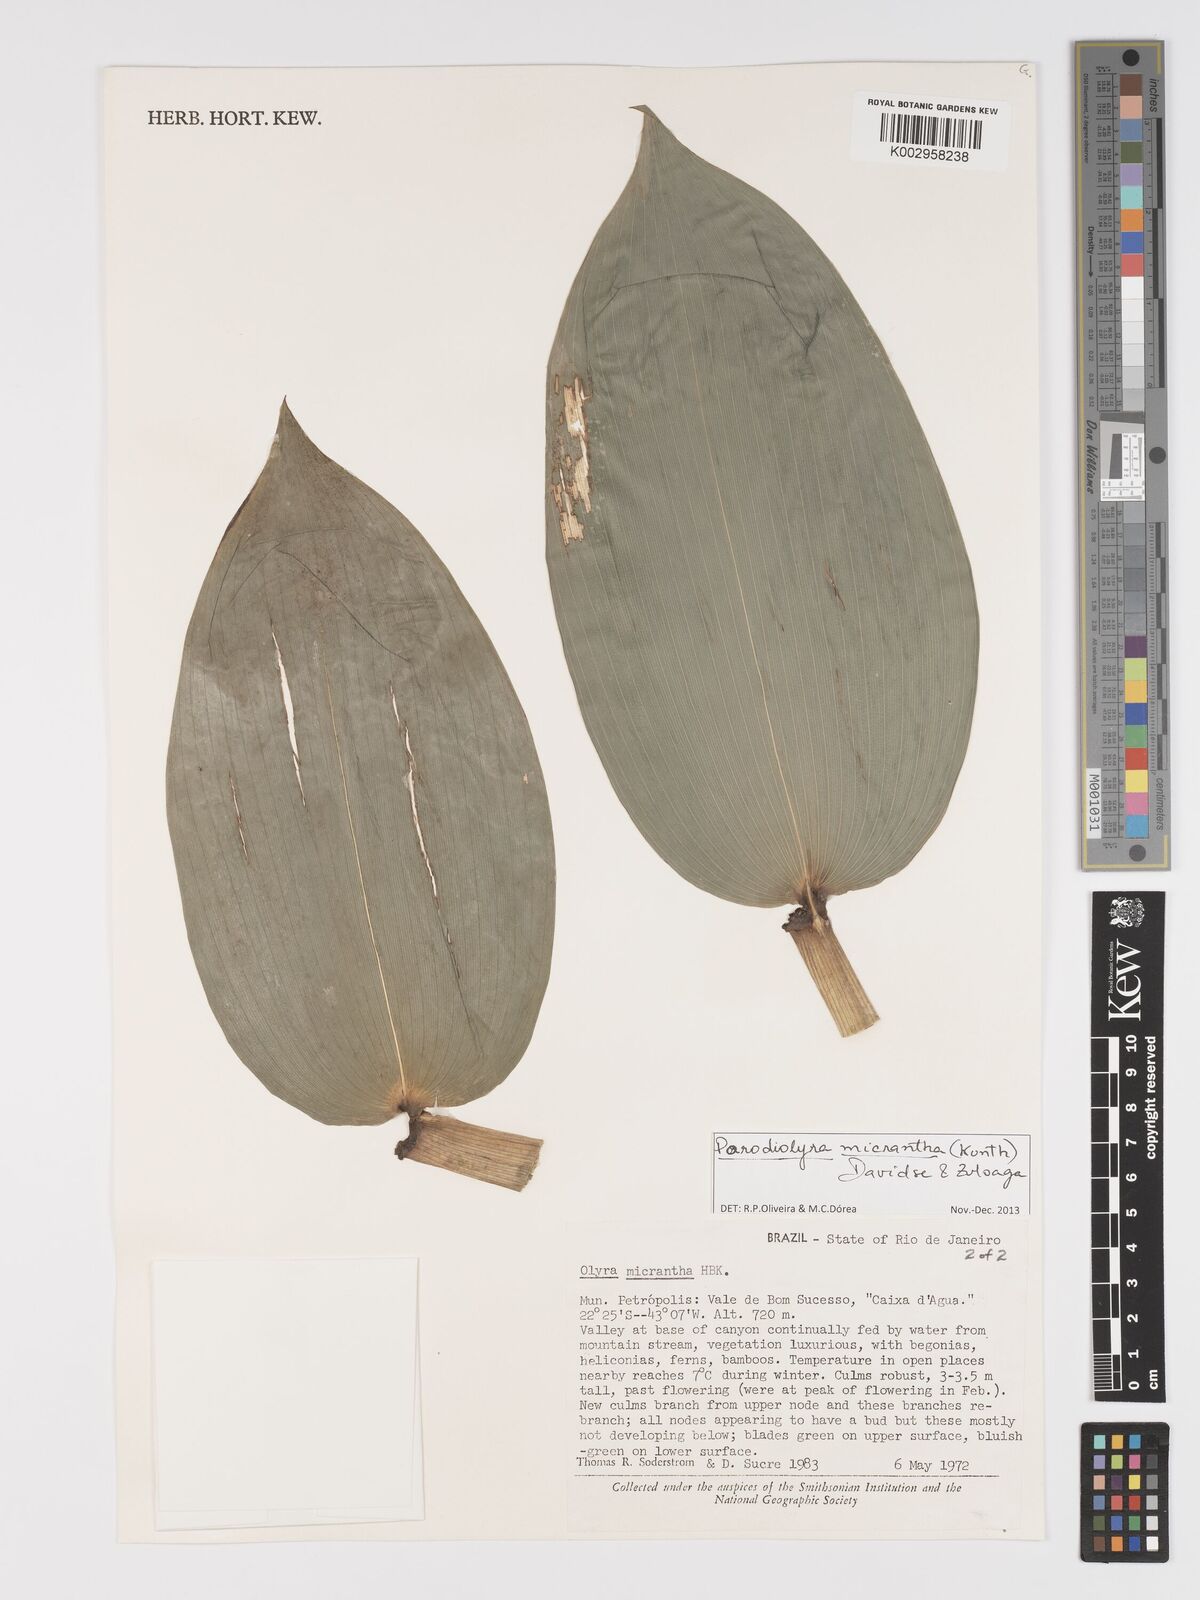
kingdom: Plantae
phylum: Tracheophyta
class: Liliopsida
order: Poales
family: Poaceae
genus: Taquara
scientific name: Taquara micrantha
